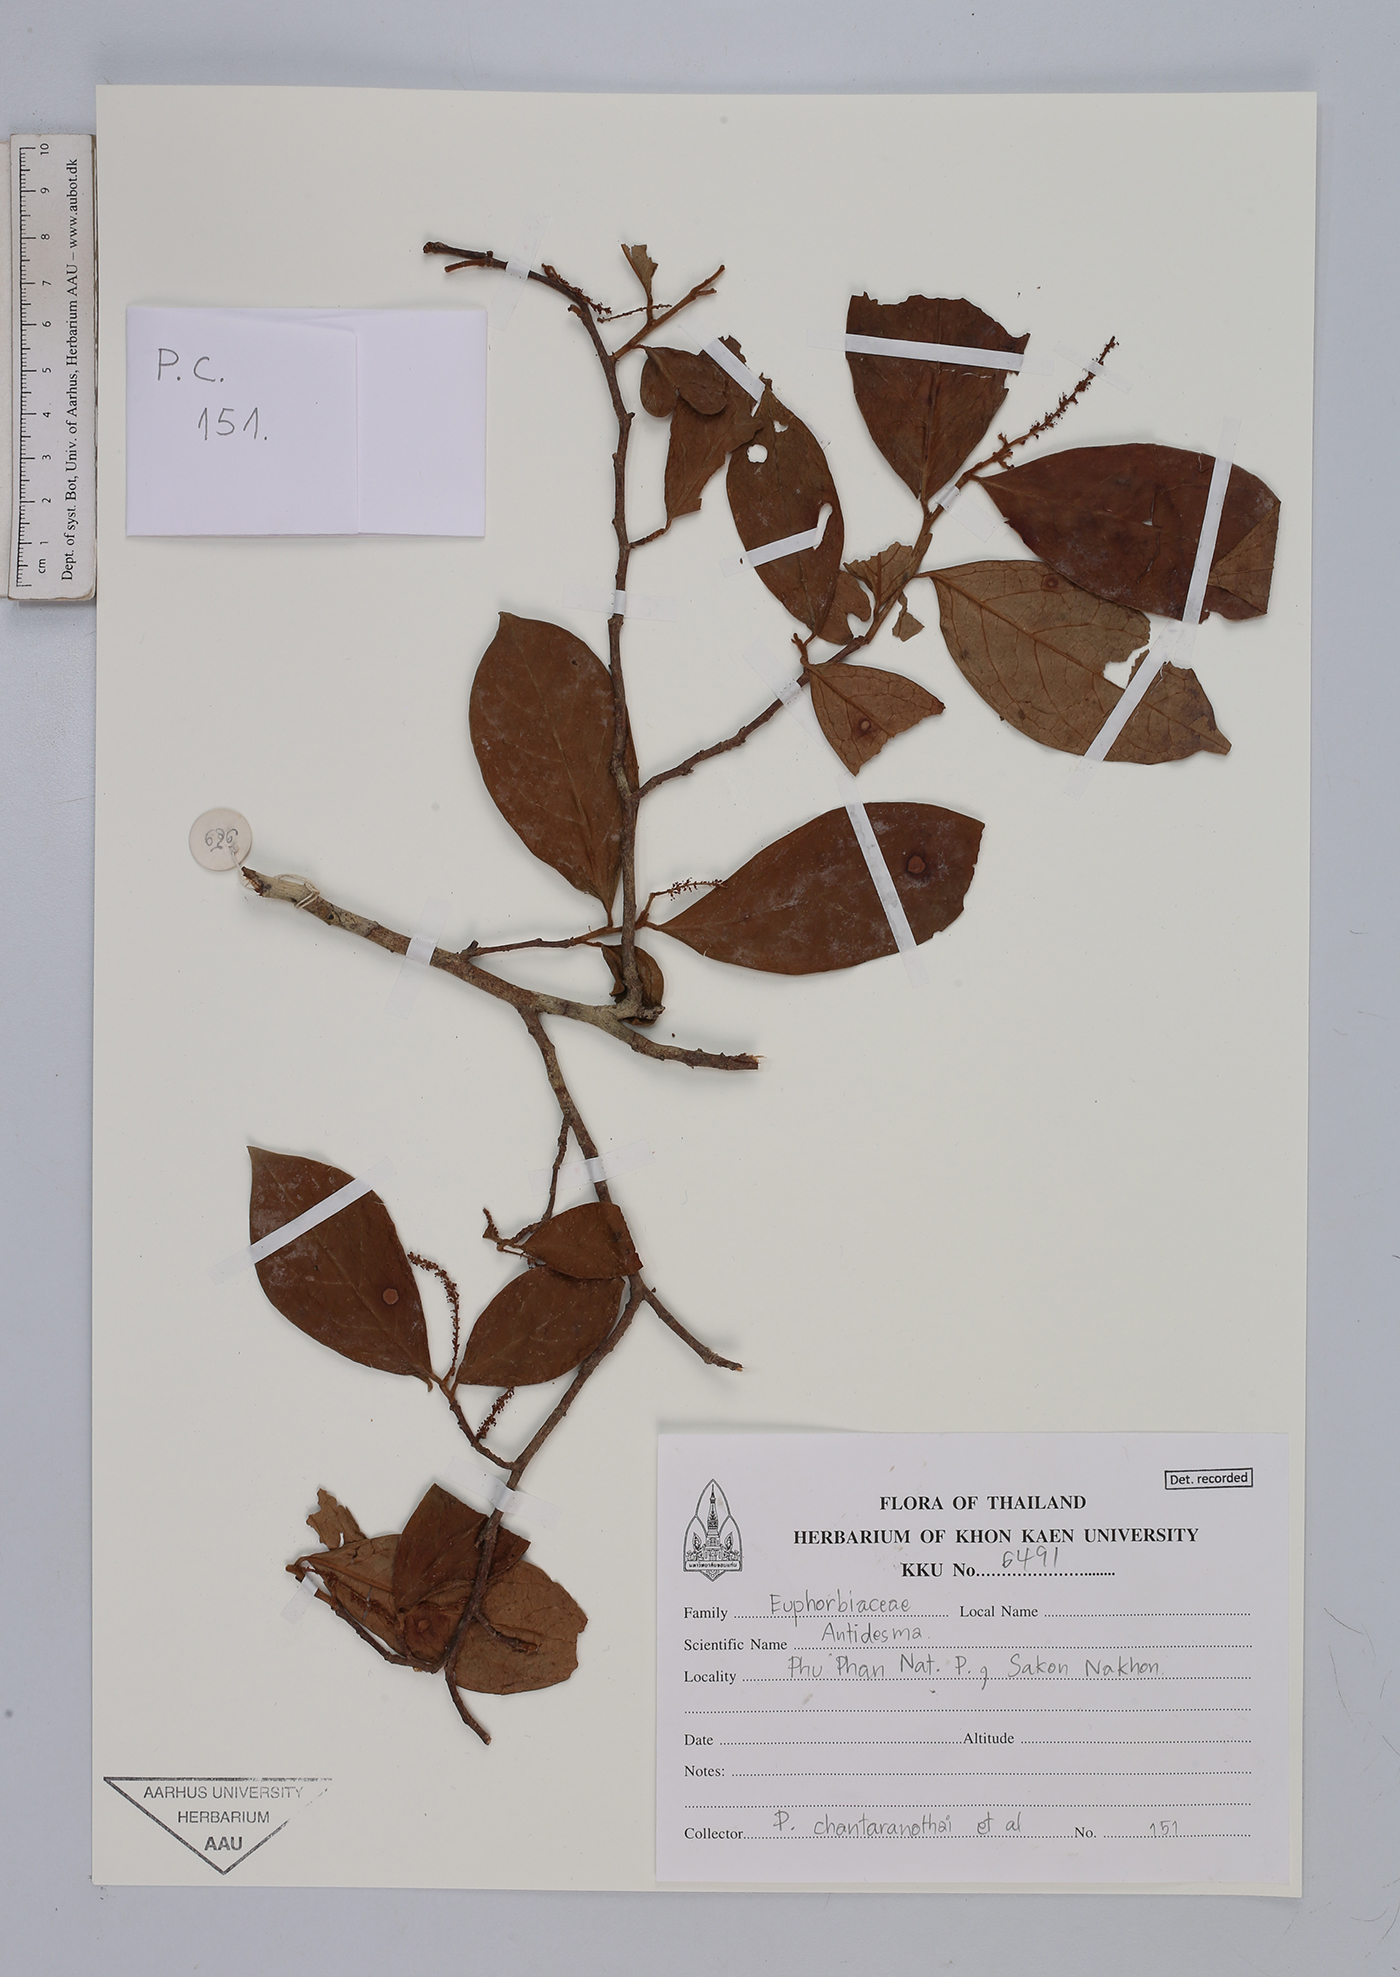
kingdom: Plantae
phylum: Tracheophyta
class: Magnoliopsida
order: Malpighiales
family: Phyllanthaceae
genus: Antidesma
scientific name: Antidesma
